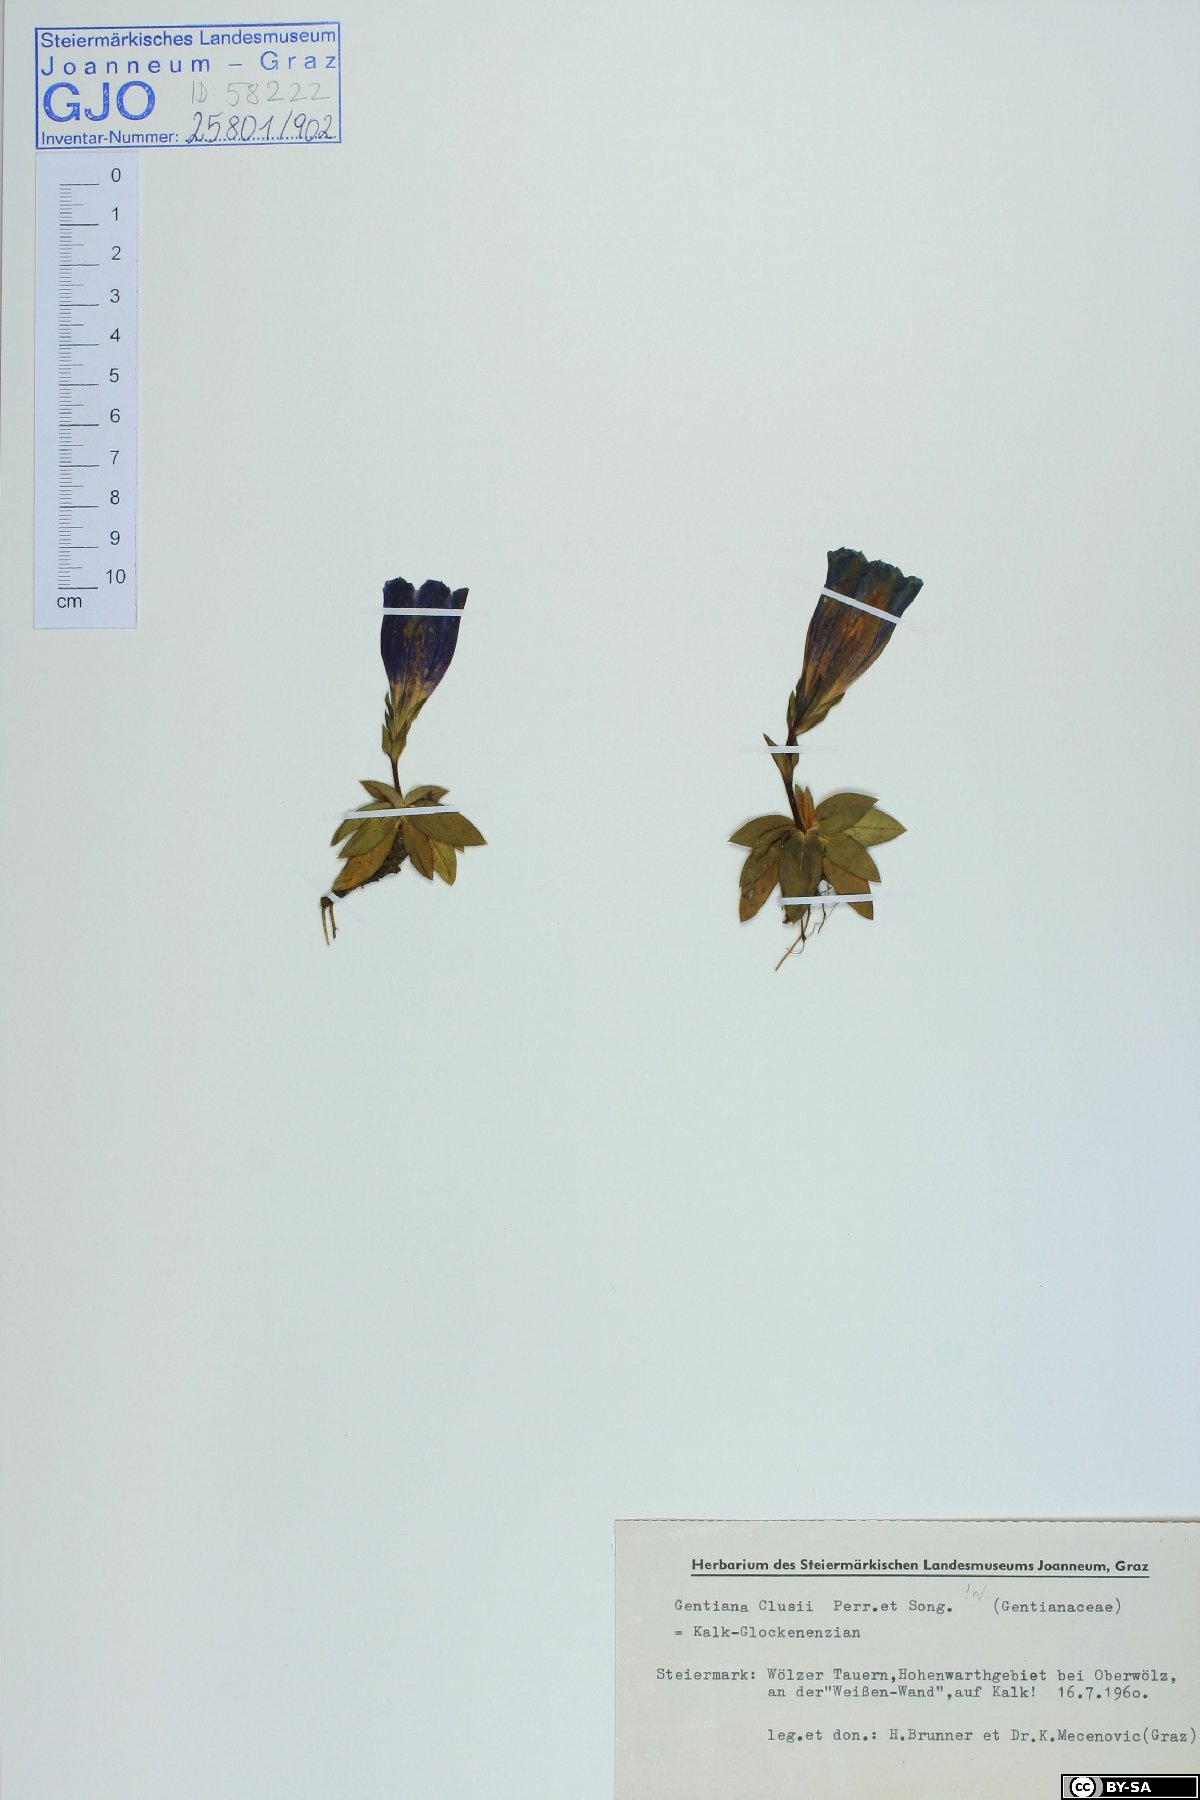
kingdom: Plantae
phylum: Tracheophyta
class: Magnoliopsida
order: Gentianales
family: Gentianaceae
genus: Gentiana
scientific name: Gentiana clusii
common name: Trumpet gentian
